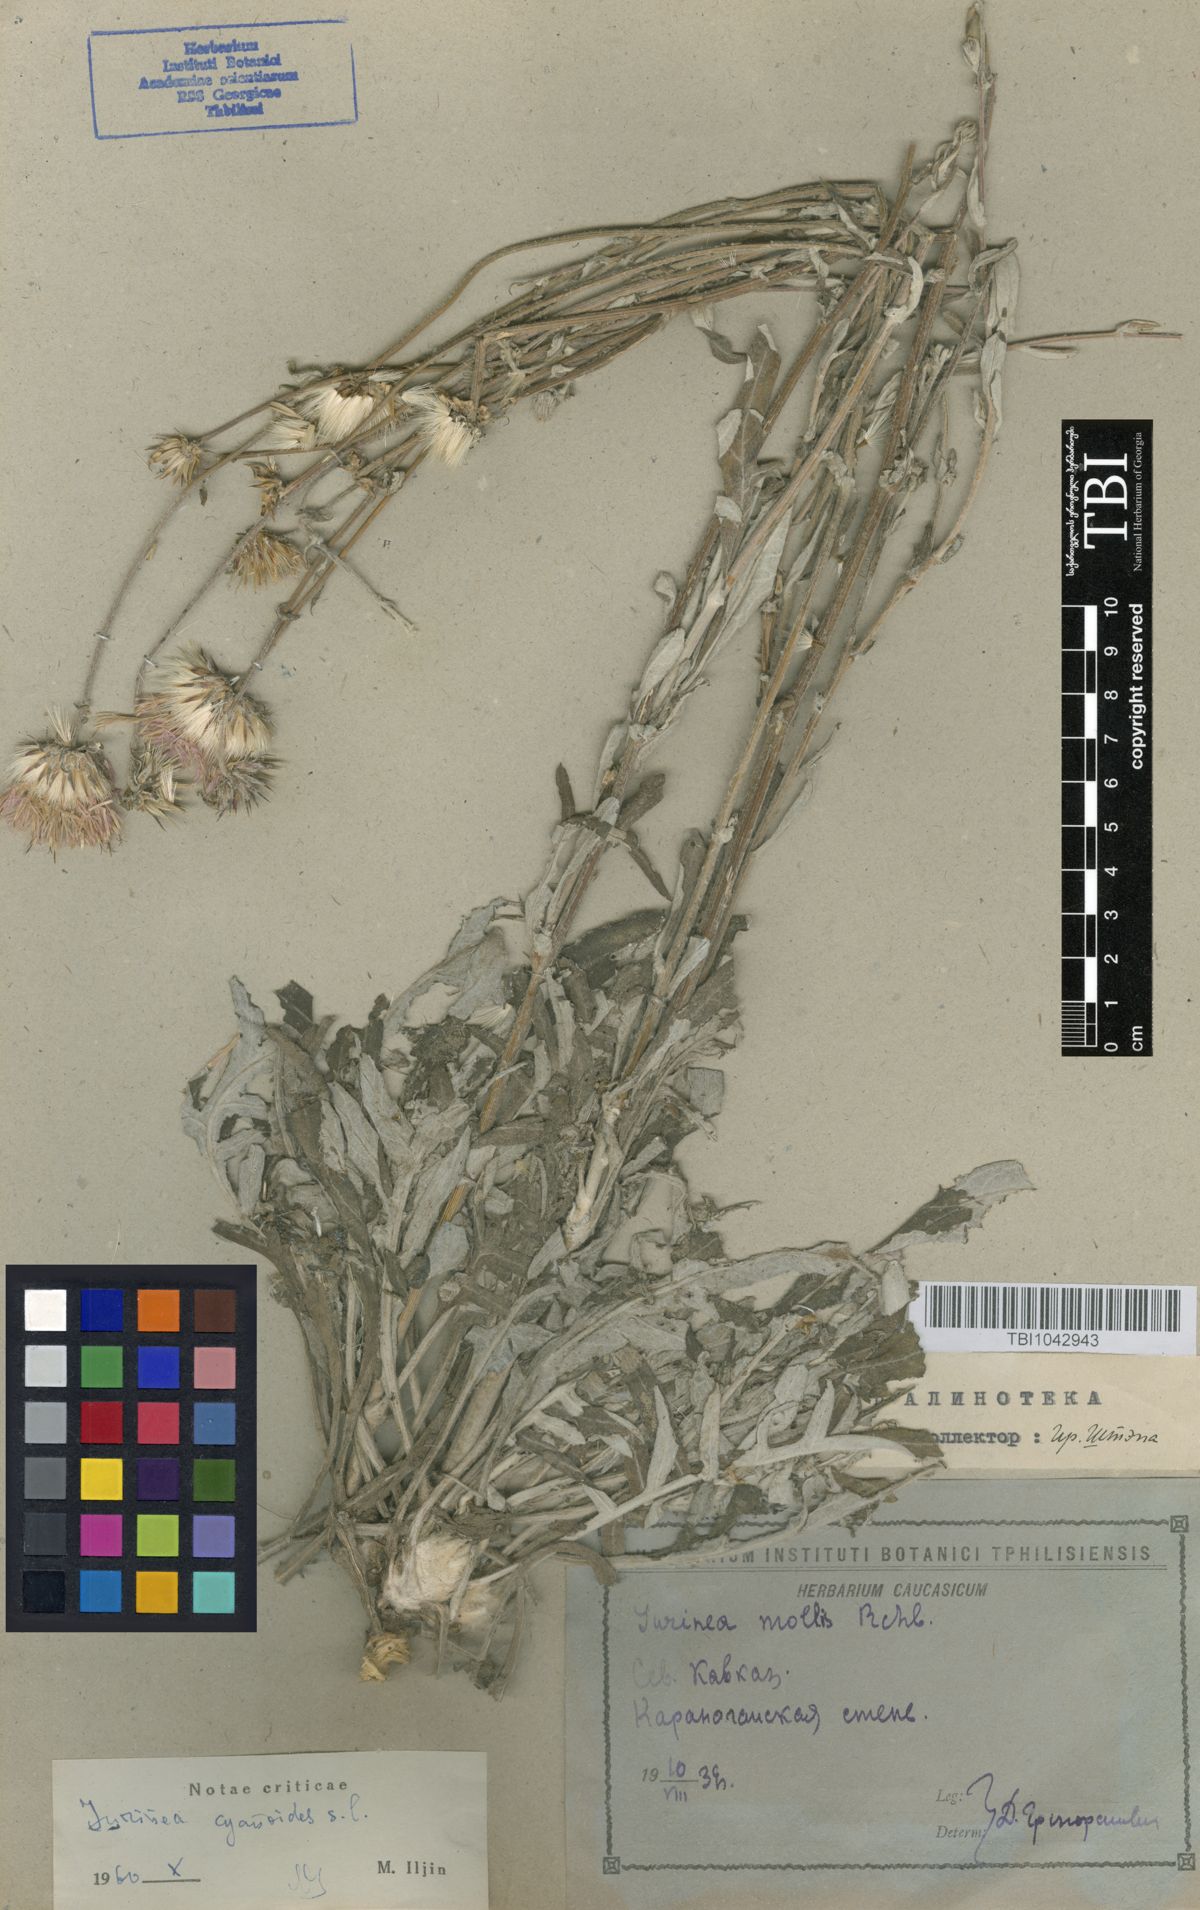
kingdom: Plantae
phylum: Tracheophyta
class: Magnoliopsida
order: Asterales
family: Asteraceae
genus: Jurinea
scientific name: Jurinea cyanoides
